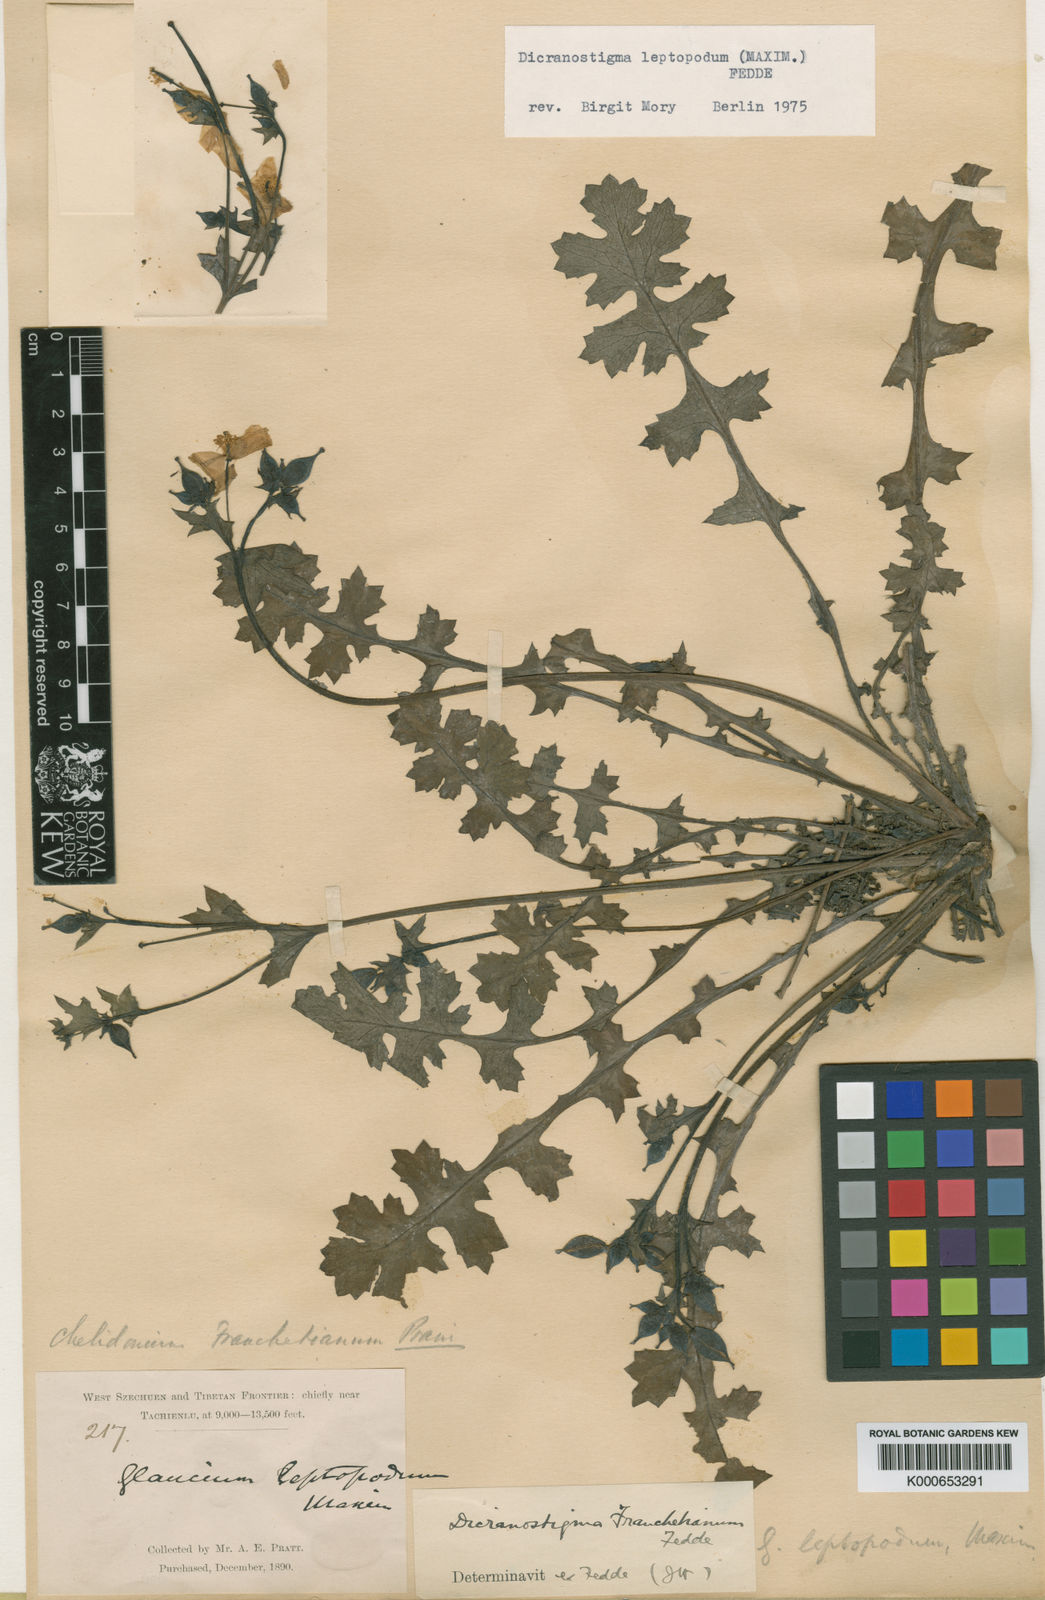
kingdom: Plantae
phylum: Tracheophyta
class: Magnoliopsida
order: Ranunculales
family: Papaveraceae
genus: Dicranostigma
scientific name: Dicranostigma leptopodum
